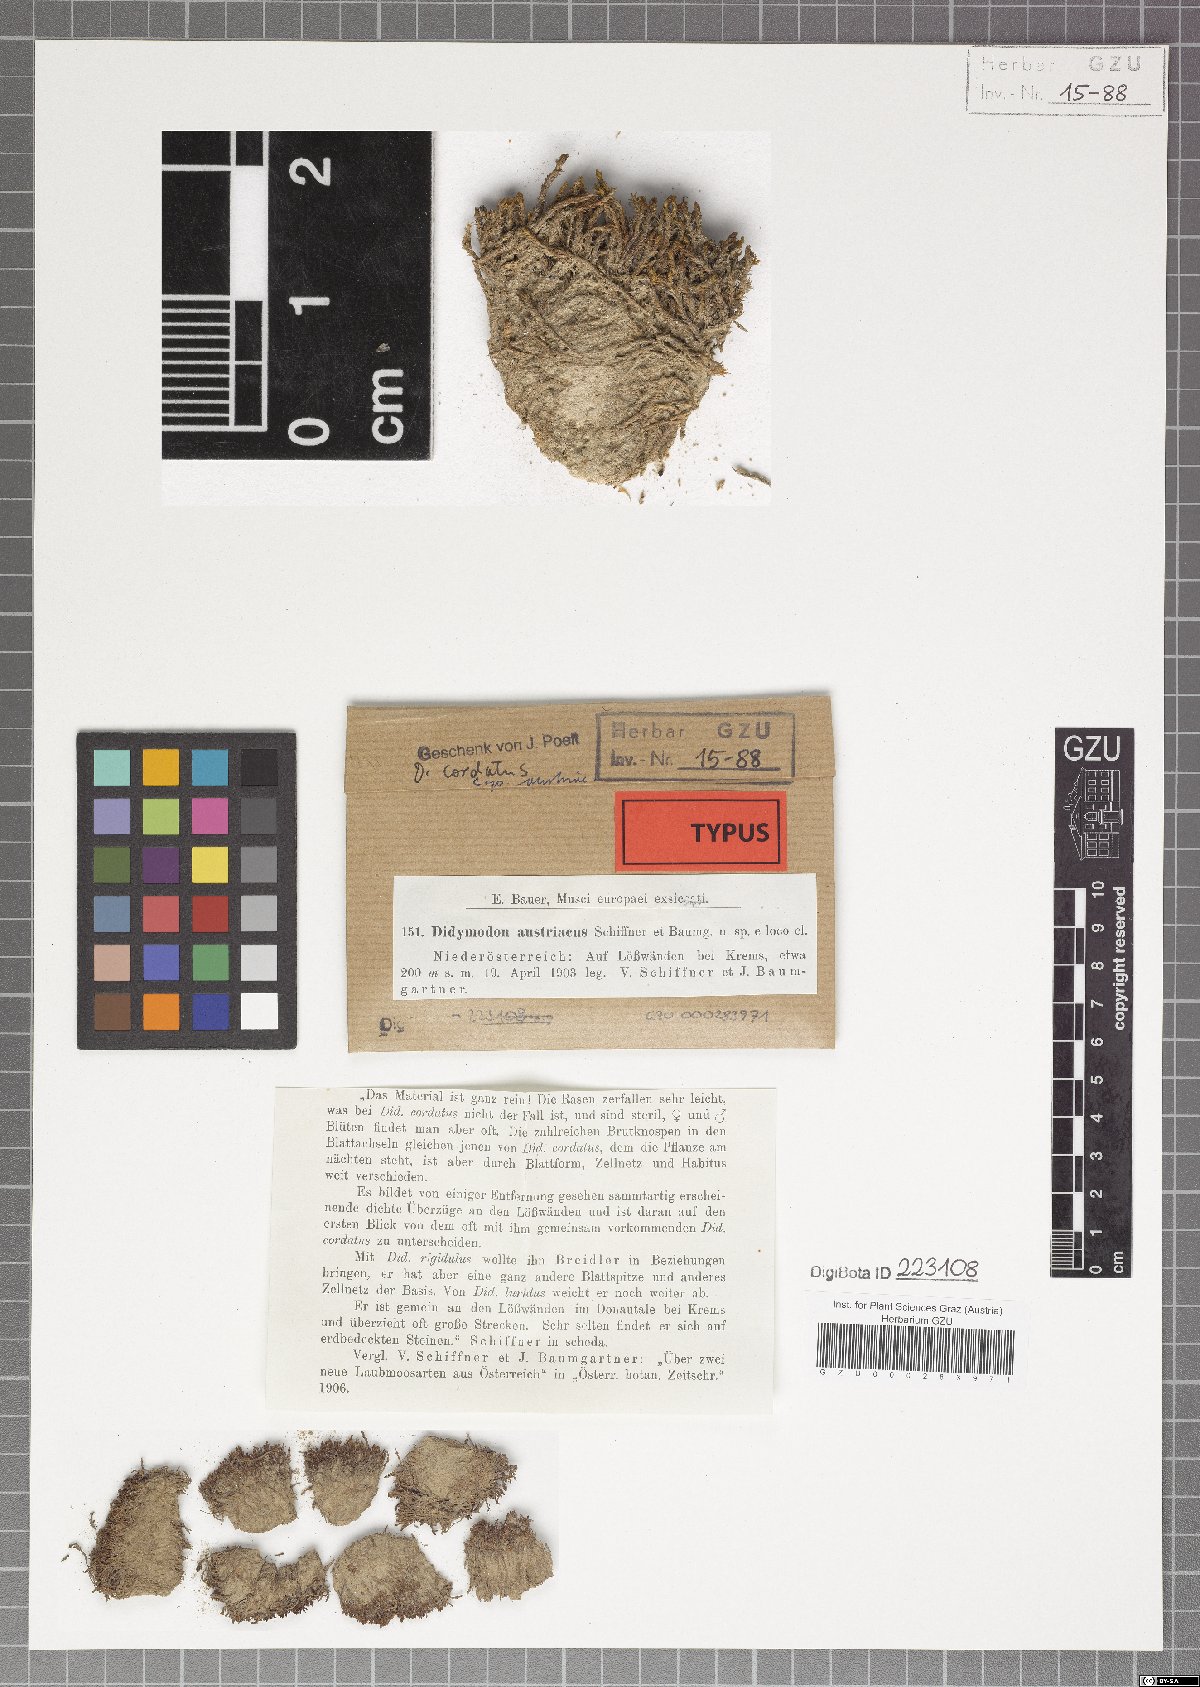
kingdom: Plantae
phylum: Bryophyta
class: Bryopsida
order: Pottiales
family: Pottiaceae
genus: Didymodon
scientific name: Didymodon cordatus
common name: Corded beard-moss
